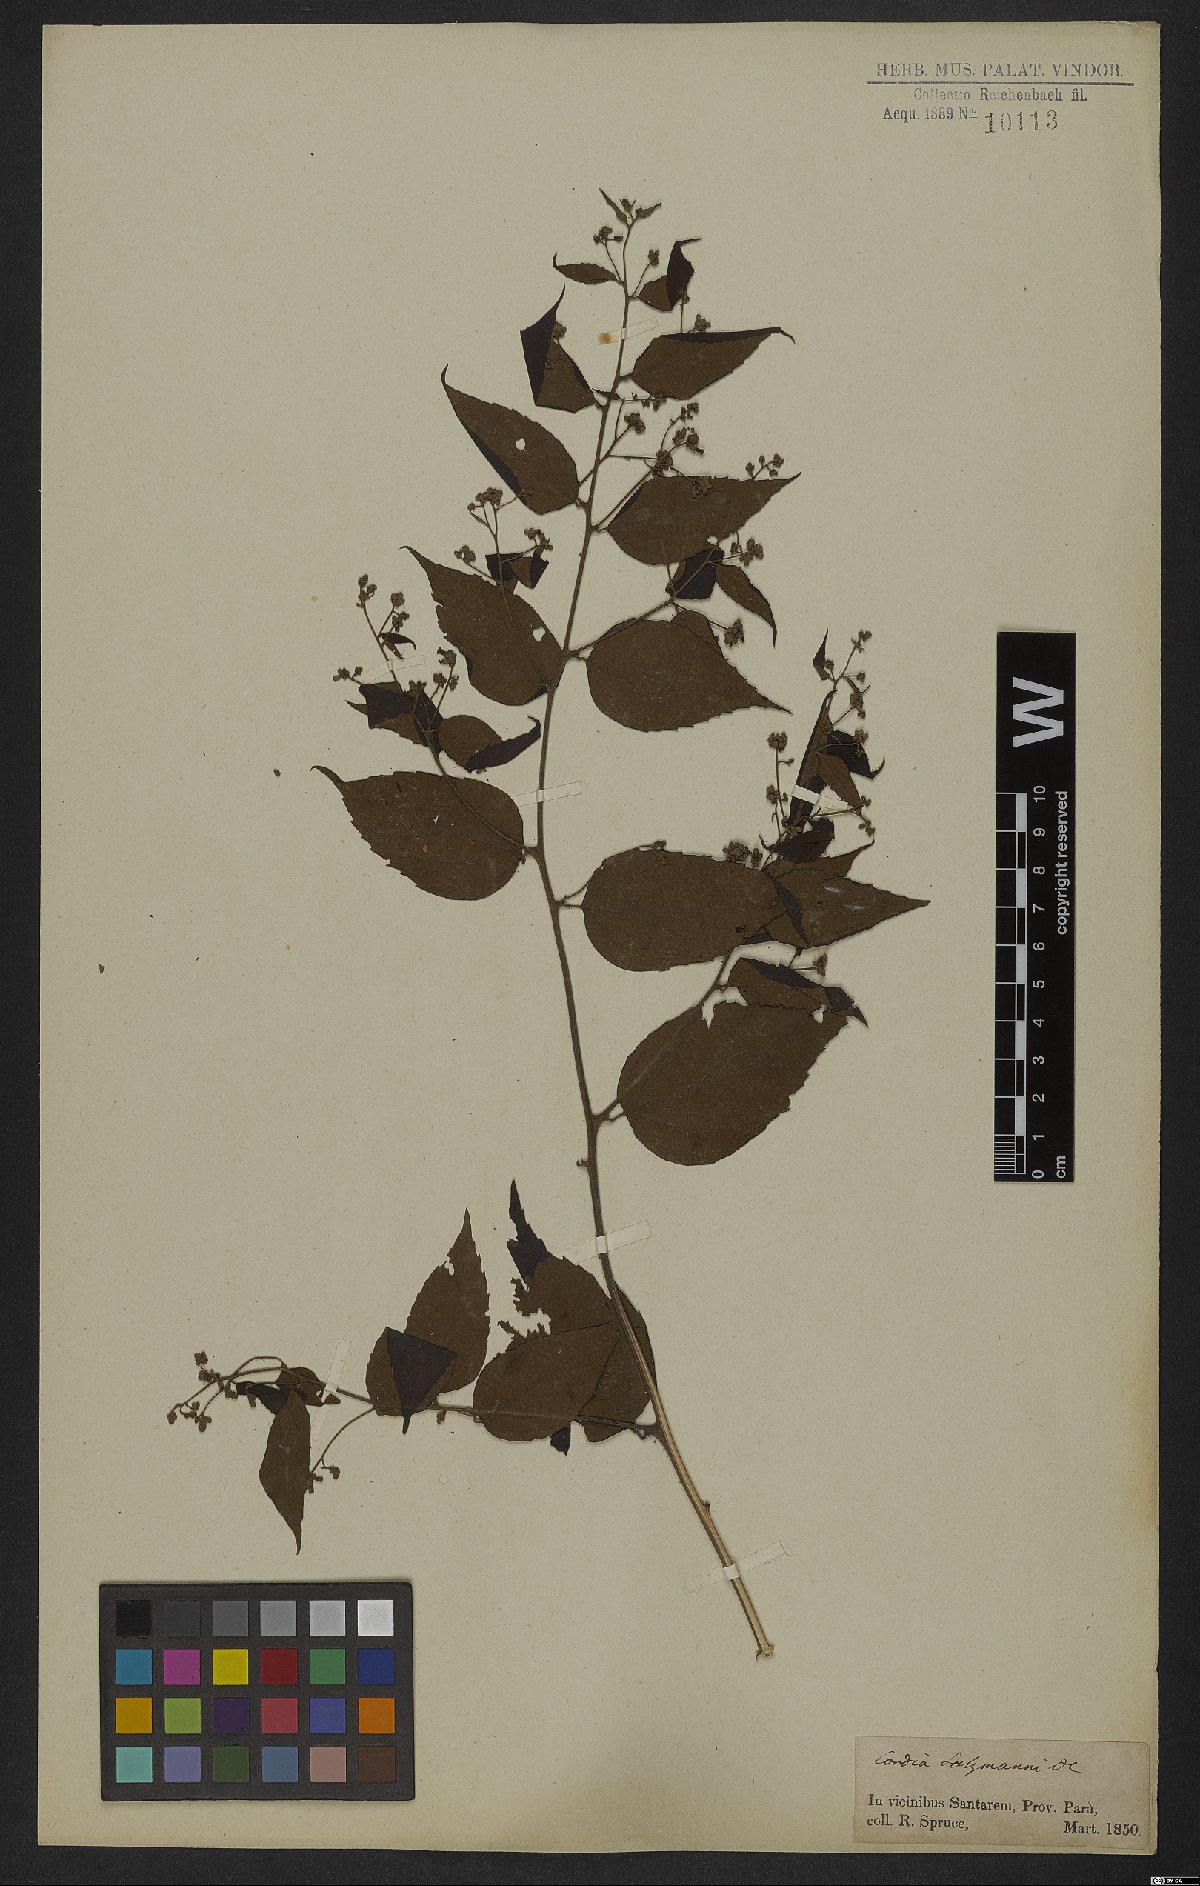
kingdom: Plantae
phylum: Tracheophyta
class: Magnoliopsida
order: Boraginales
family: Cordiaceae
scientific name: Cordiaceae
